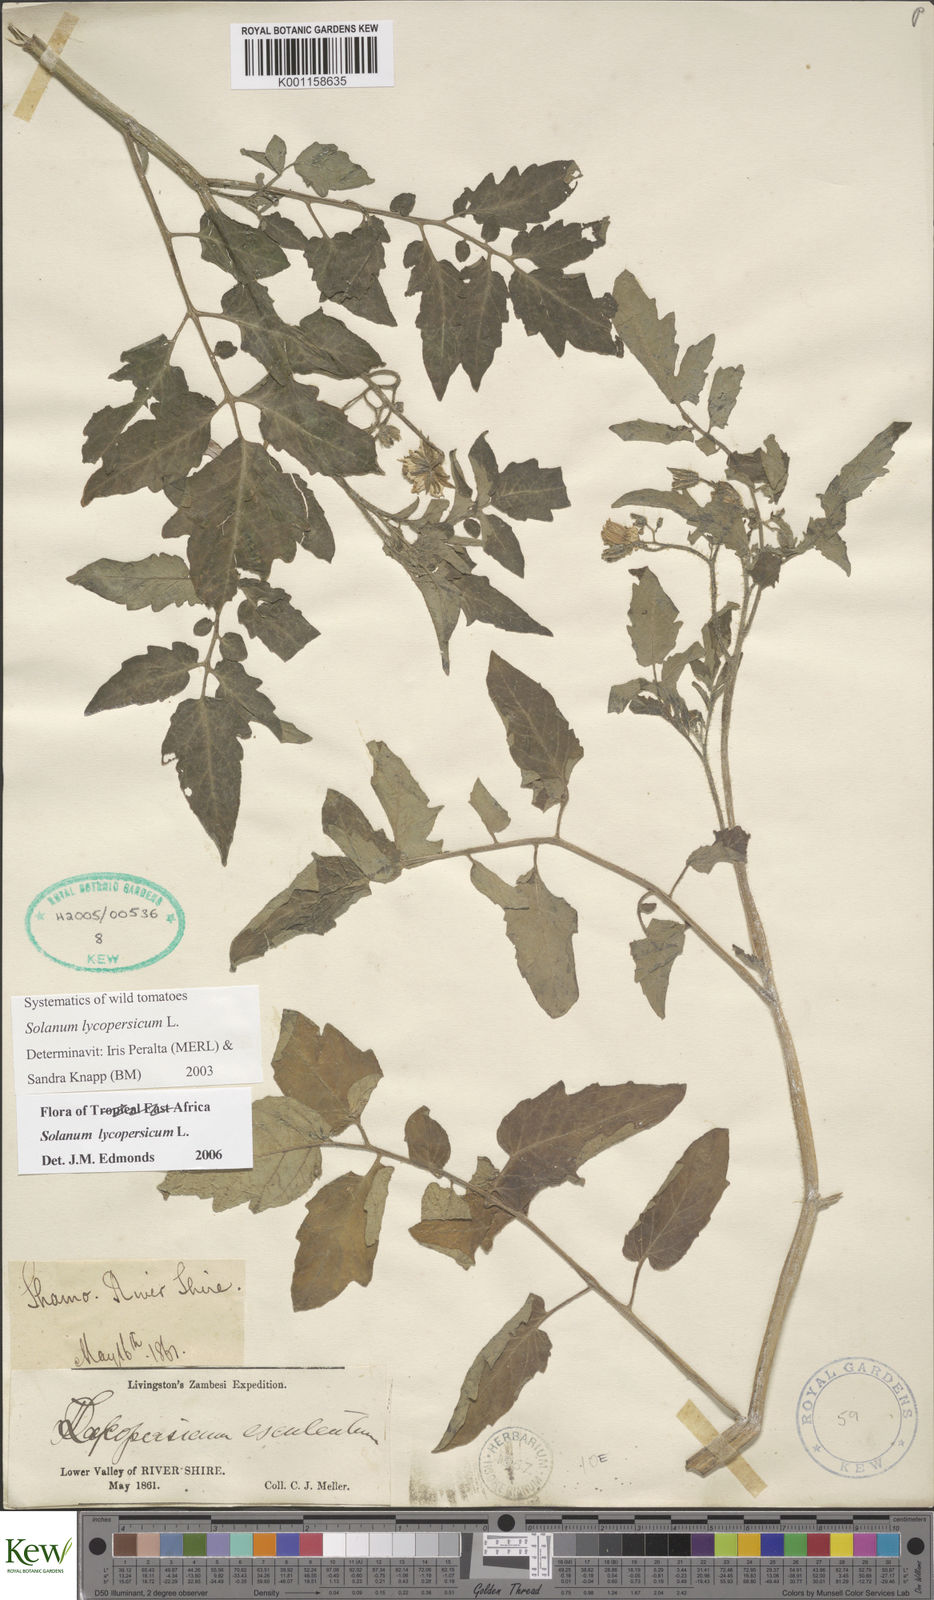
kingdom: Plantae
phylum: Tracheophyta
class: Magnoliopsida
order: Solanales
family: Solanaceae
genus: Solanum
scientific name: Solanum lycopersicum
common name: Garden tomato
